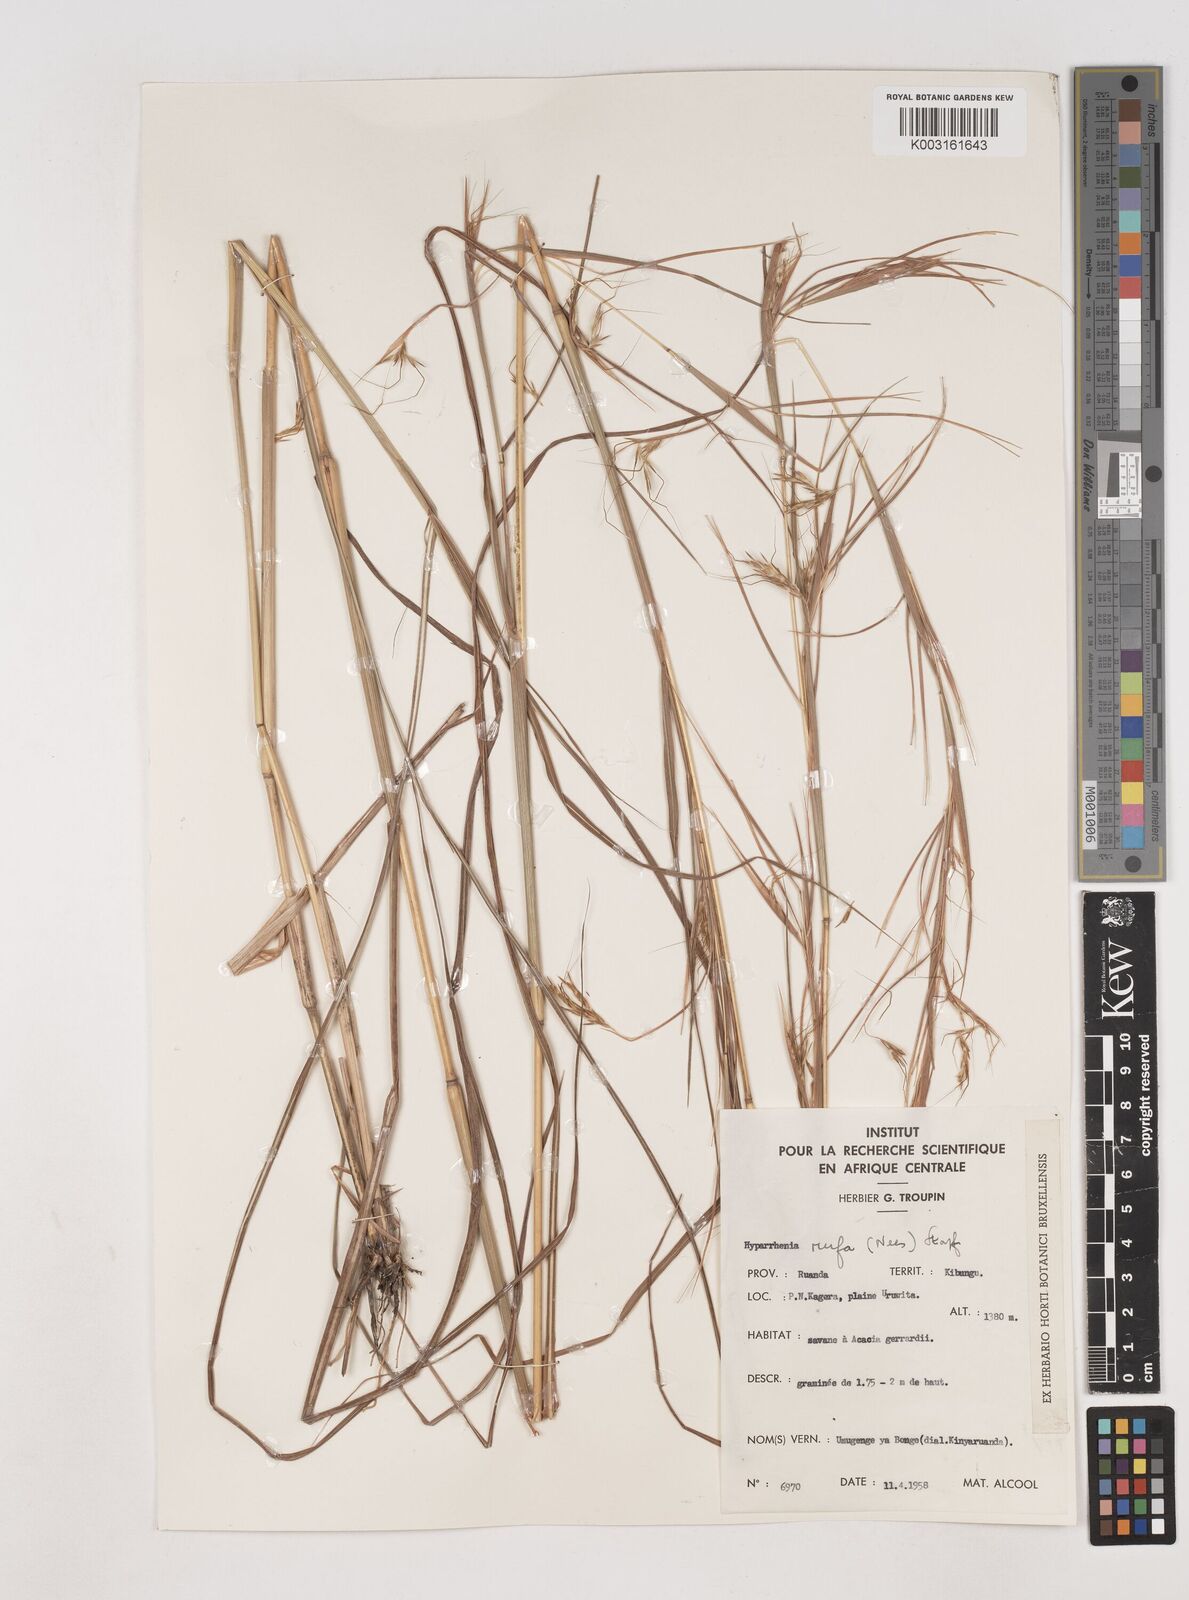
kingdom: Plantae
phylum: Tracheophyta
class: Liliopsida
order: Poales
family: Poaceae
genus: Hyparrhenia
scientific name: Hyparrhenia rufa
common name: Jaraguagrass
